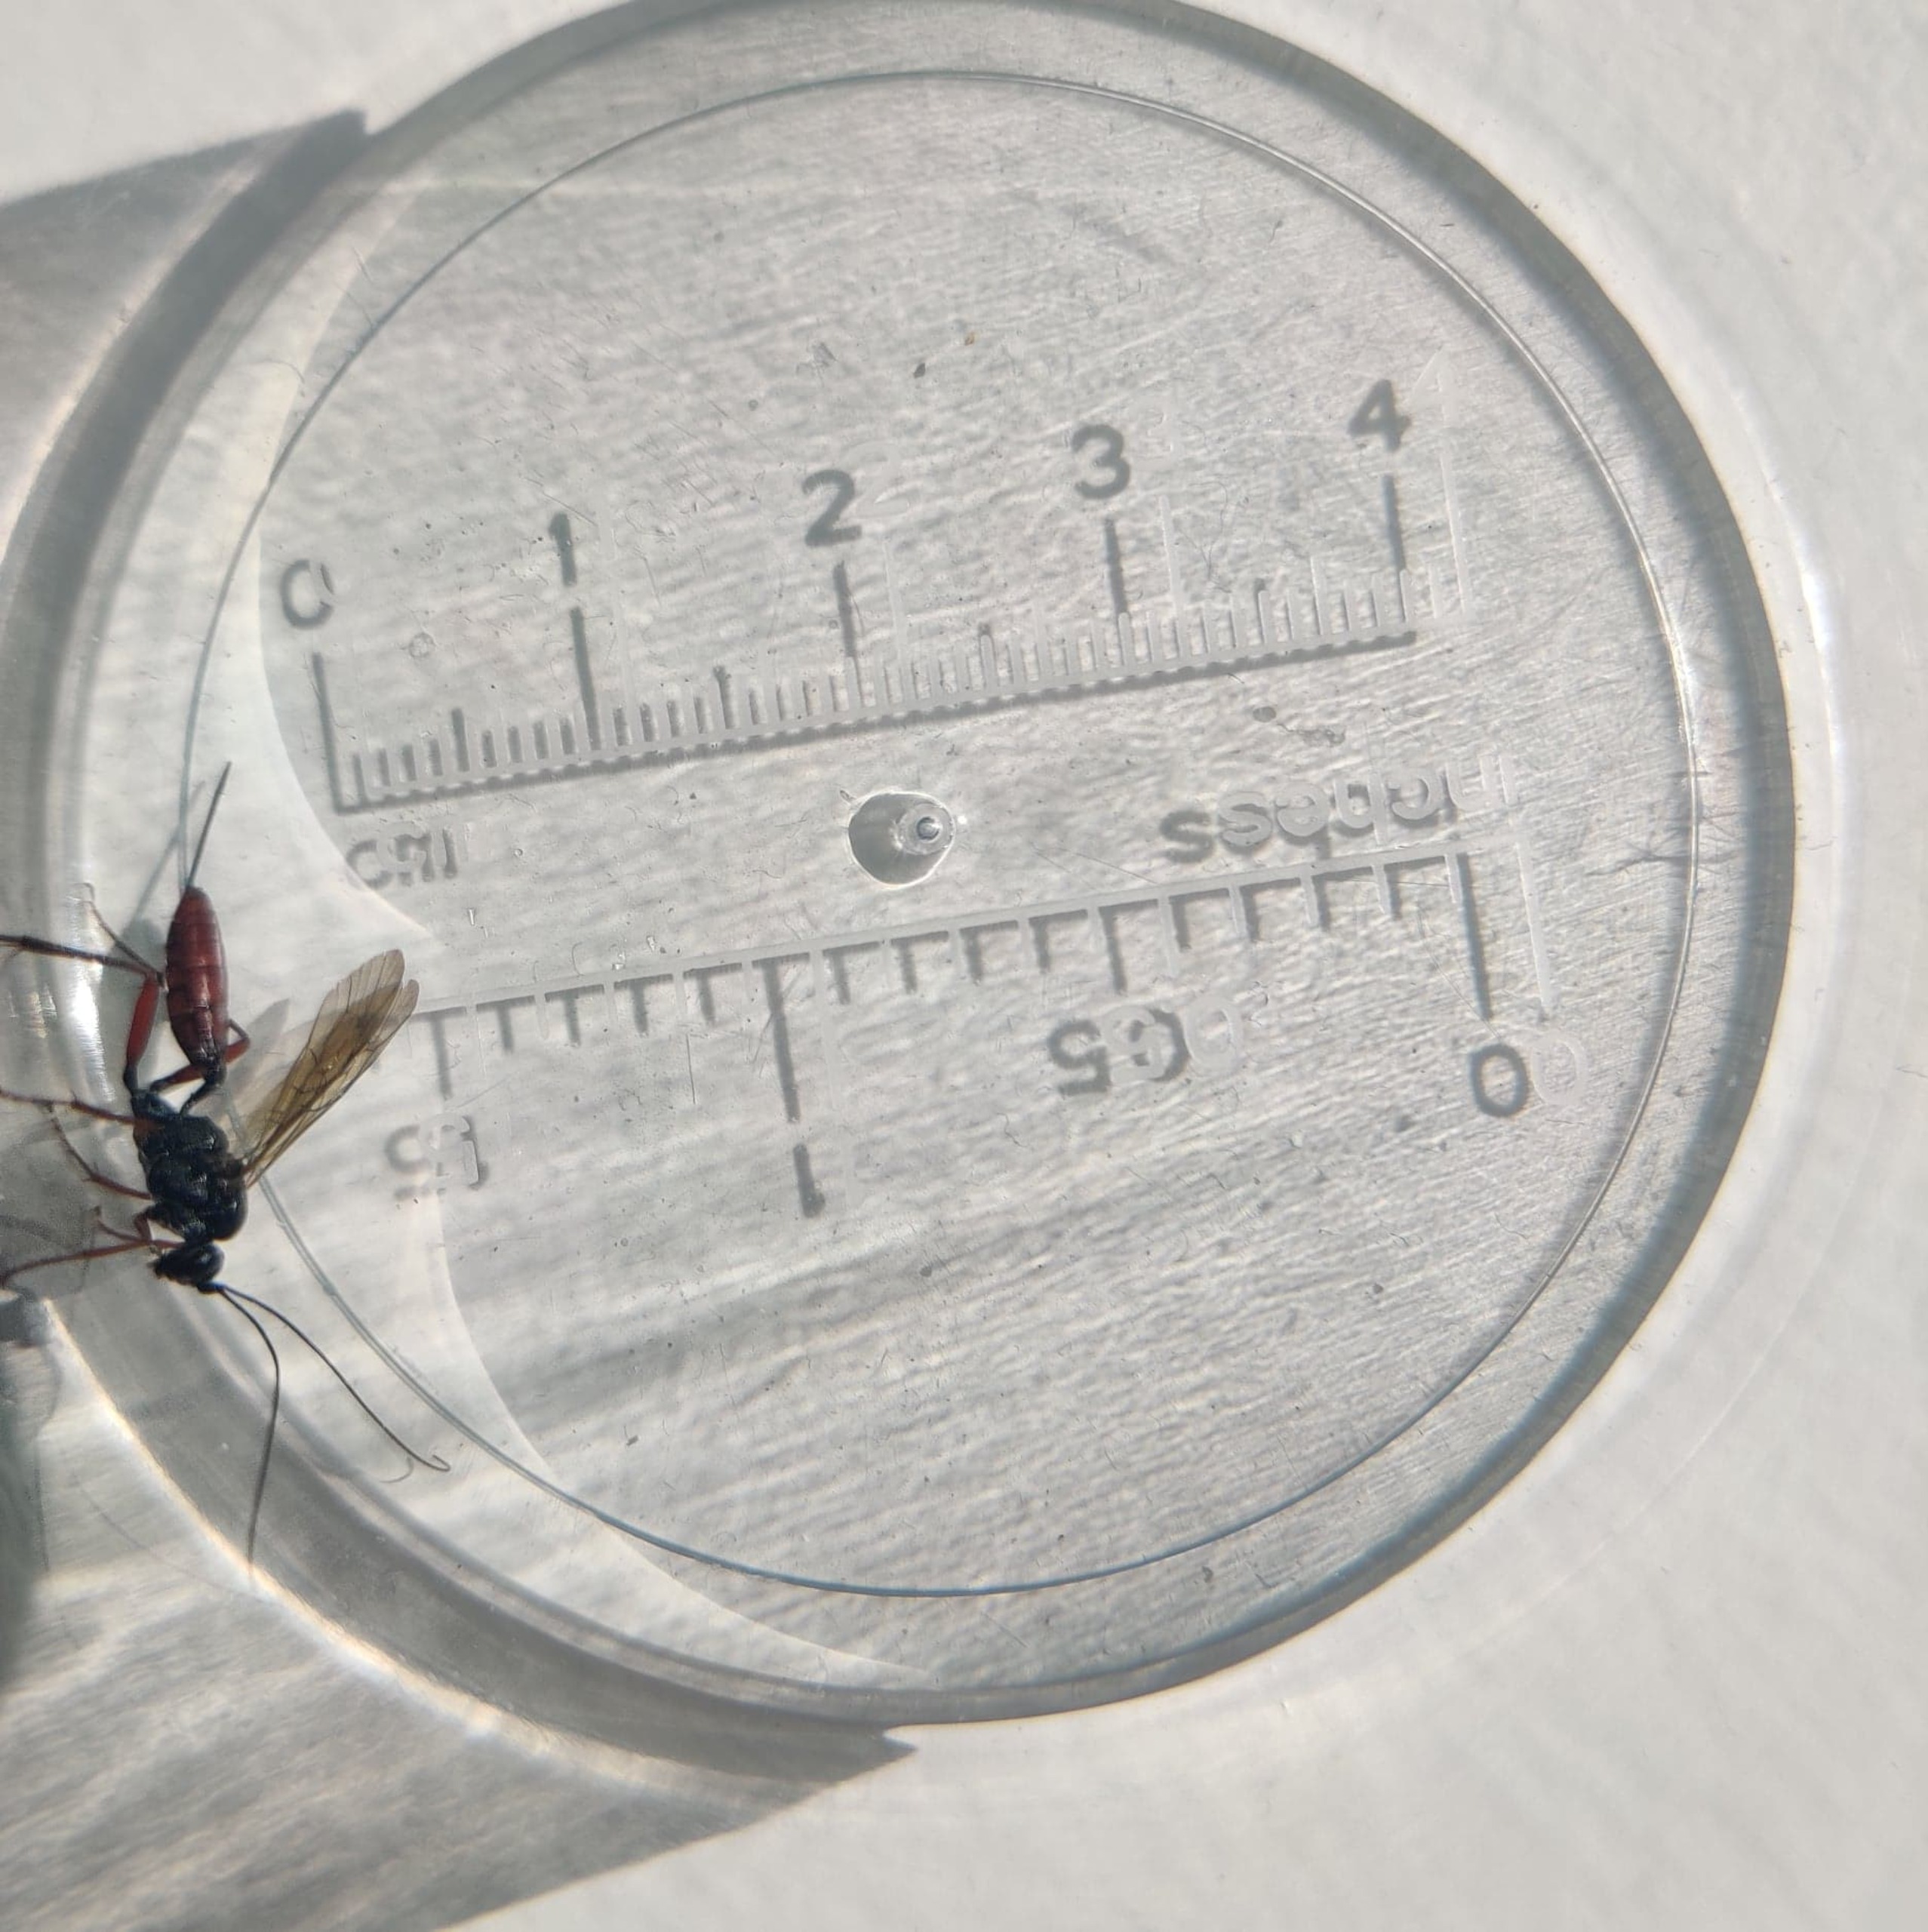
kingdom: Animalia
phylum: Arthropoda
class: Insecta
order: Hymenoptera
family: Ichneumonidae
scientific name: Ichneumonidae
